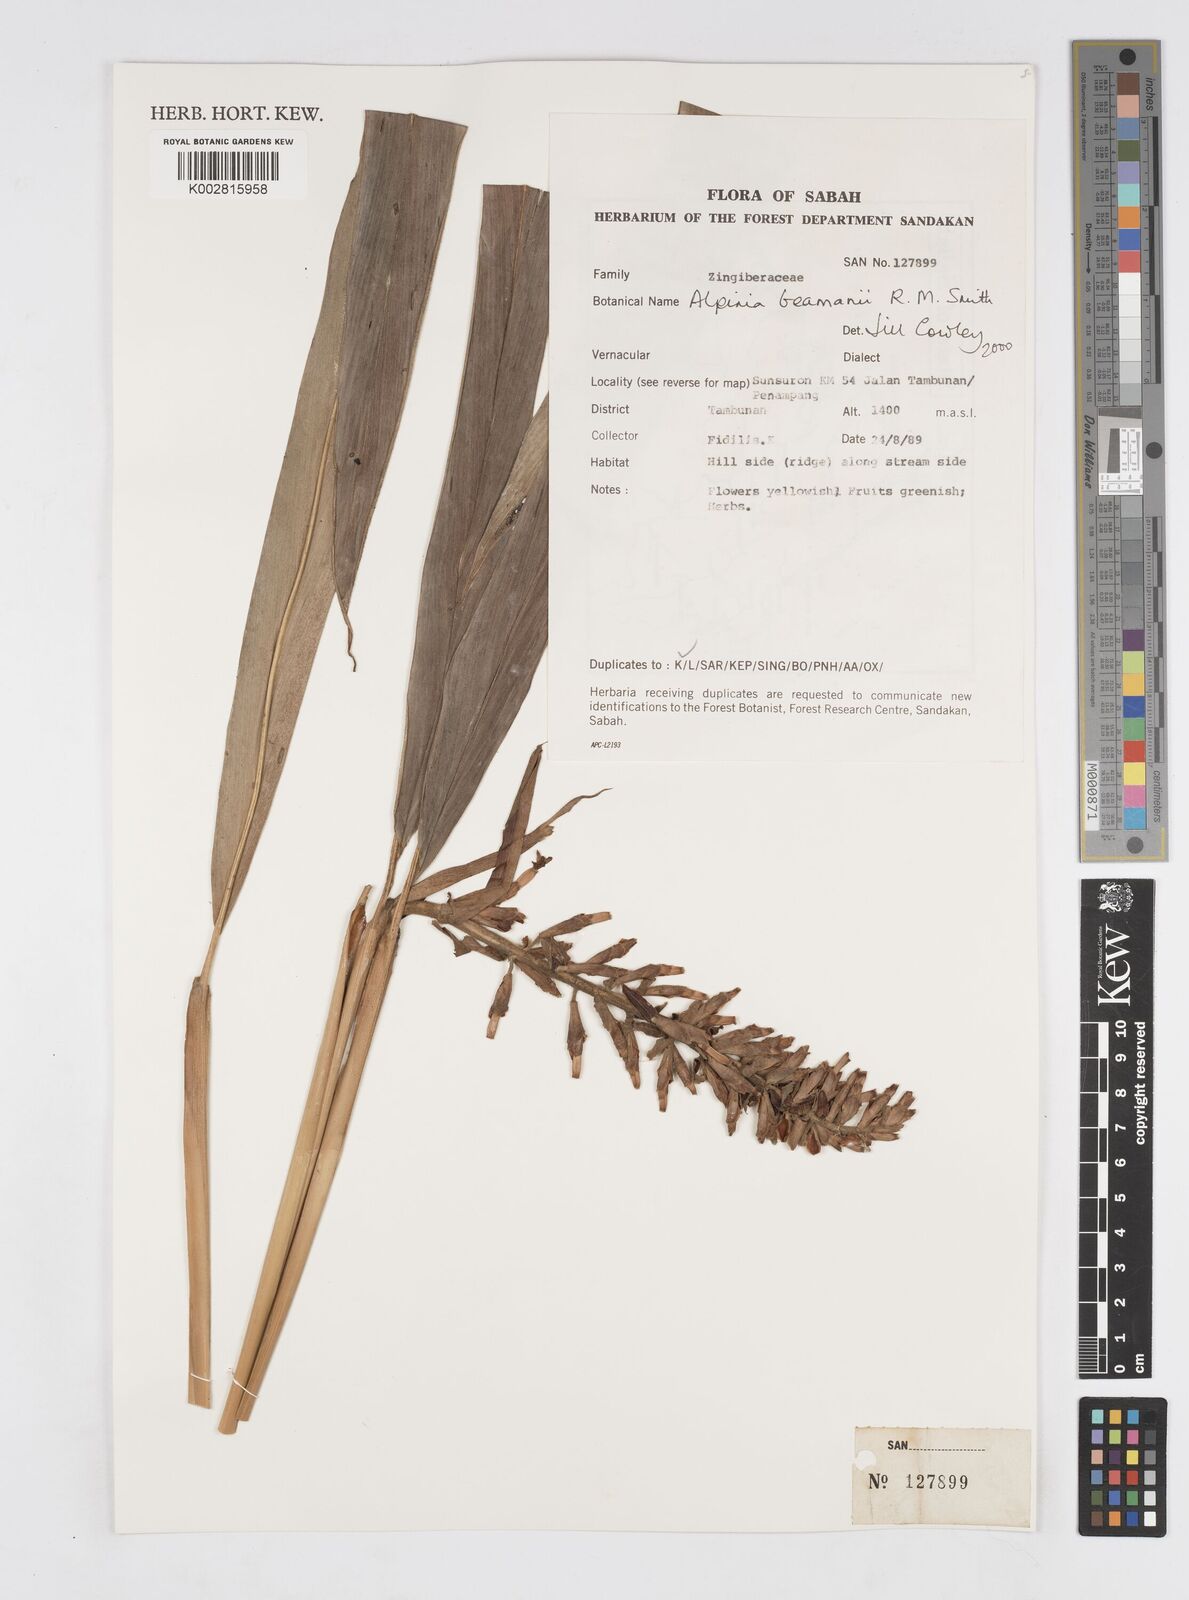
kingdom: Plantae
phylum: Tracheophyta
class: Liliopsida
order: Zingiberales
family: Zingiberaceae
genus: Alpinia
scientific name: Alpinia beamanii
